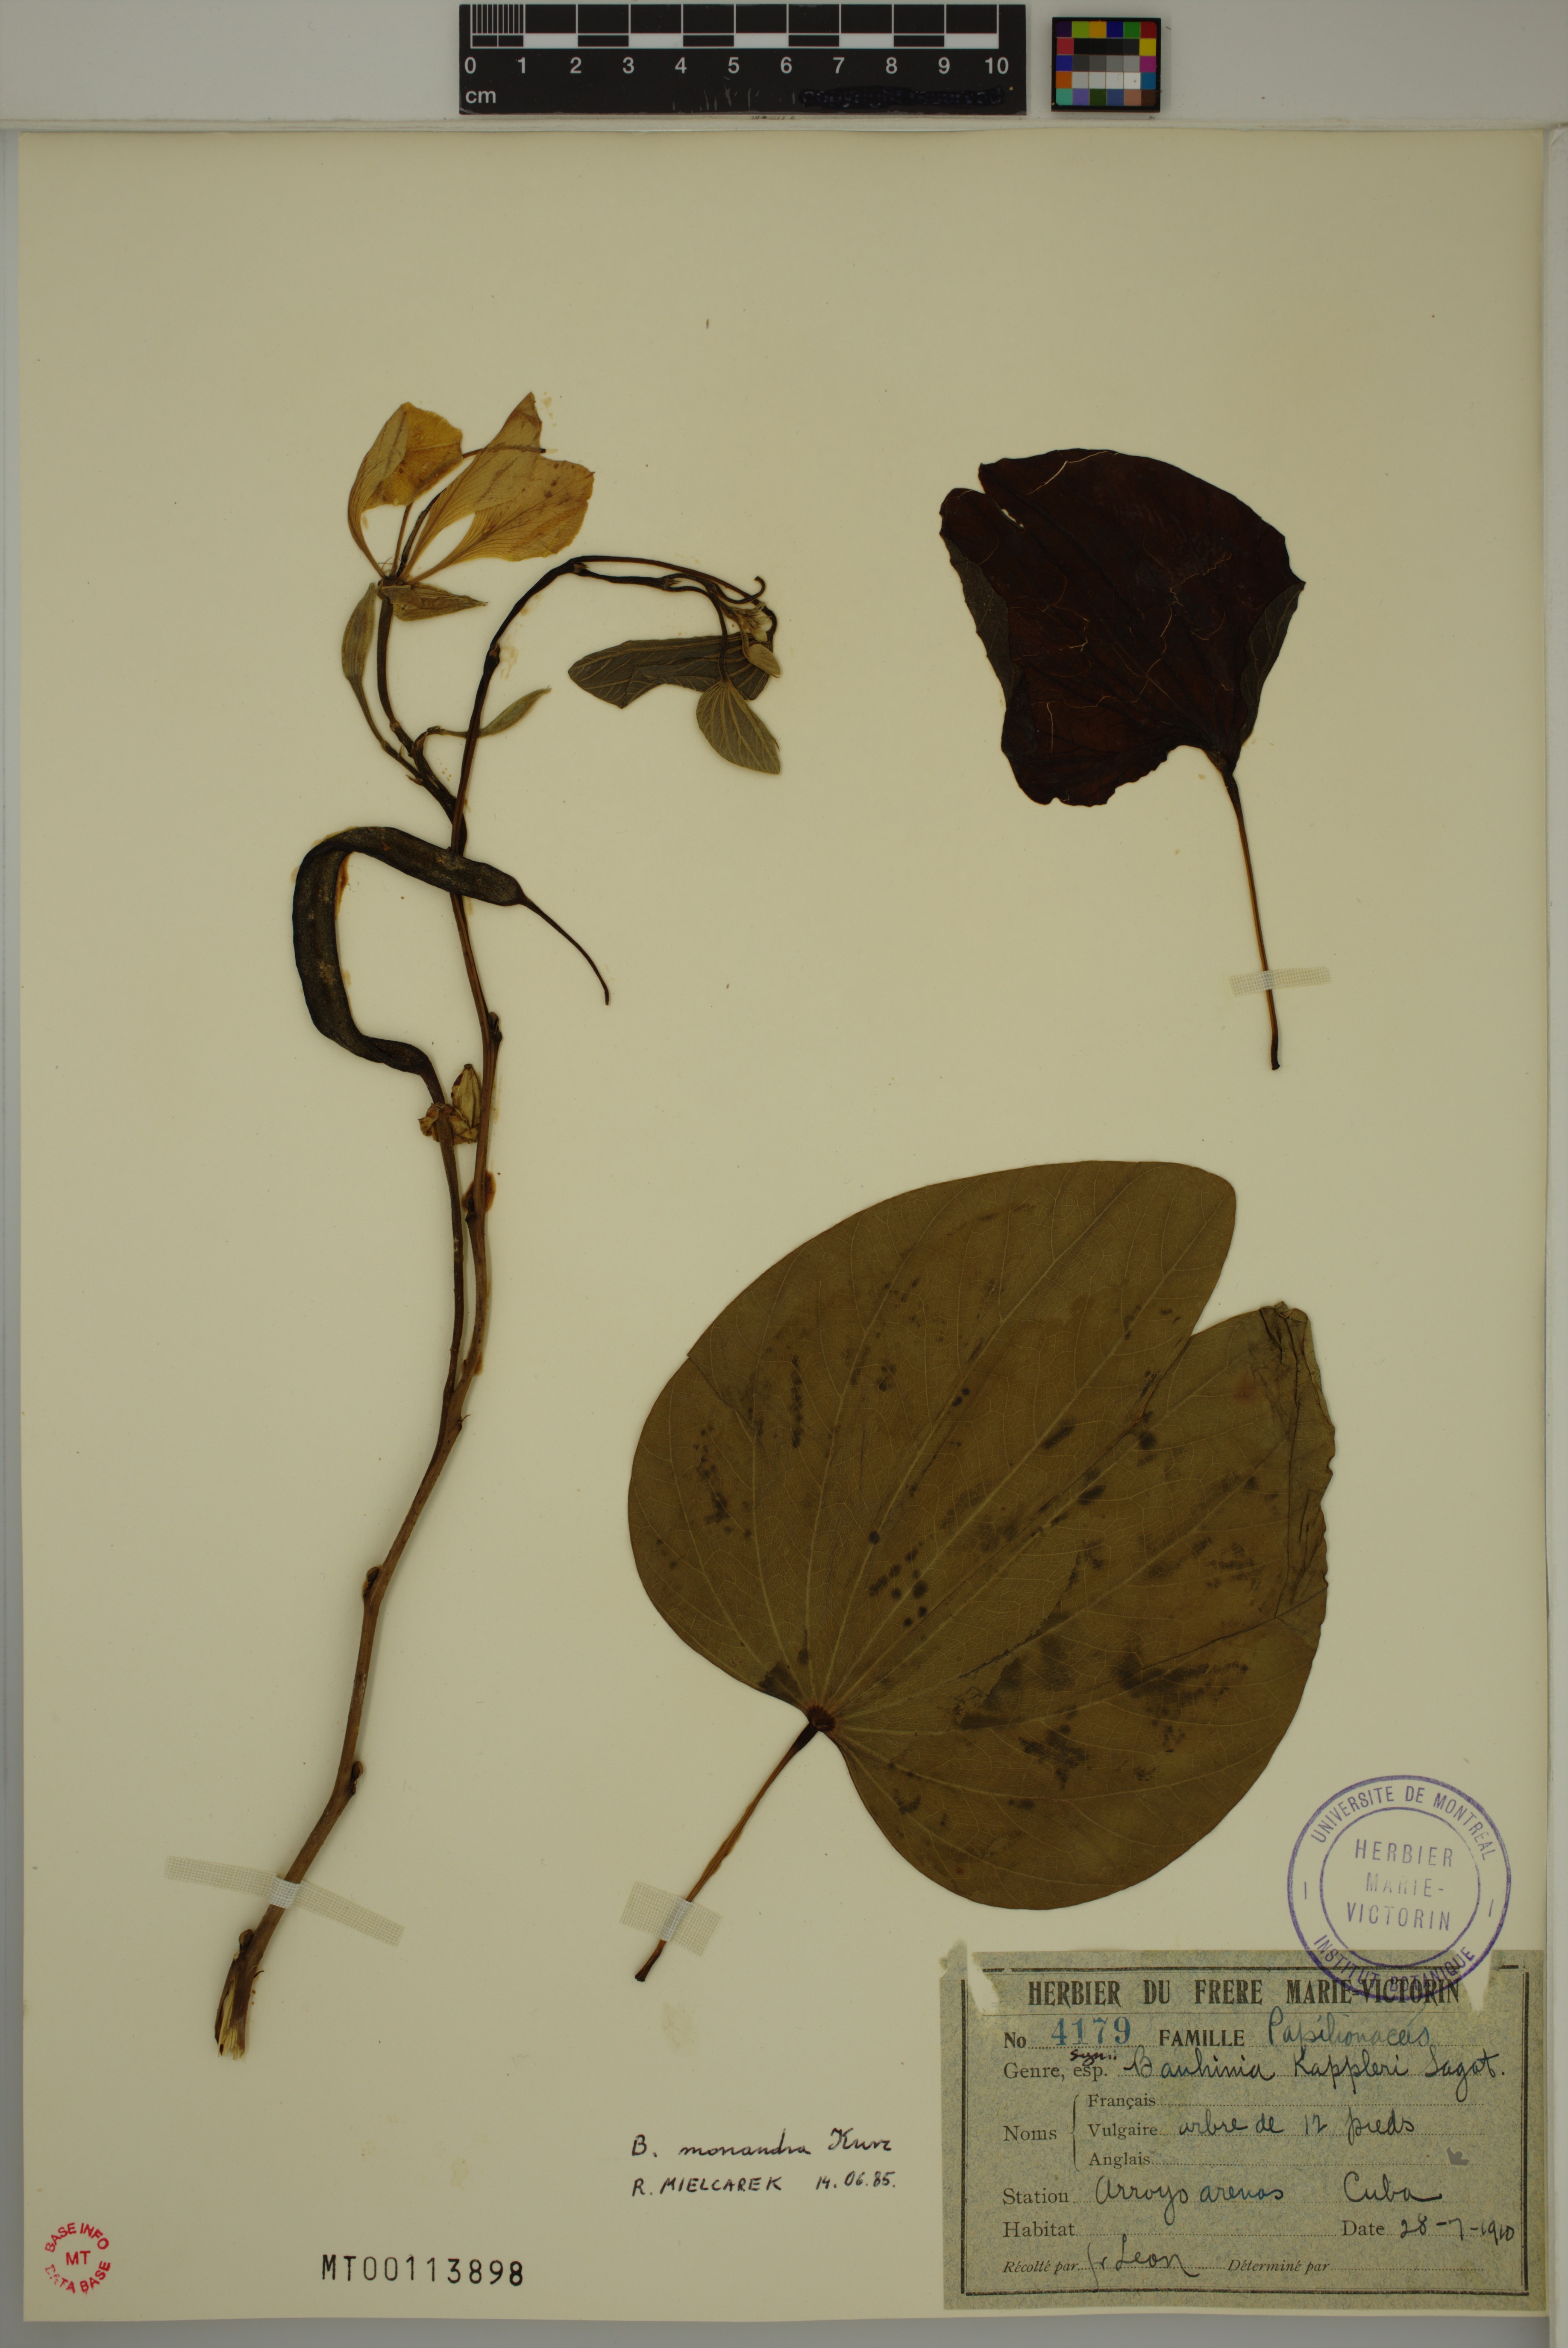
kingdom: Plantae
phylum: Tracheophyta
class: Magnoliopsida
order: Fabales
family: Fabaceae
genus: Bauhinia
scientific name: Bauhinia monandra
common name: Napoleon's plume
